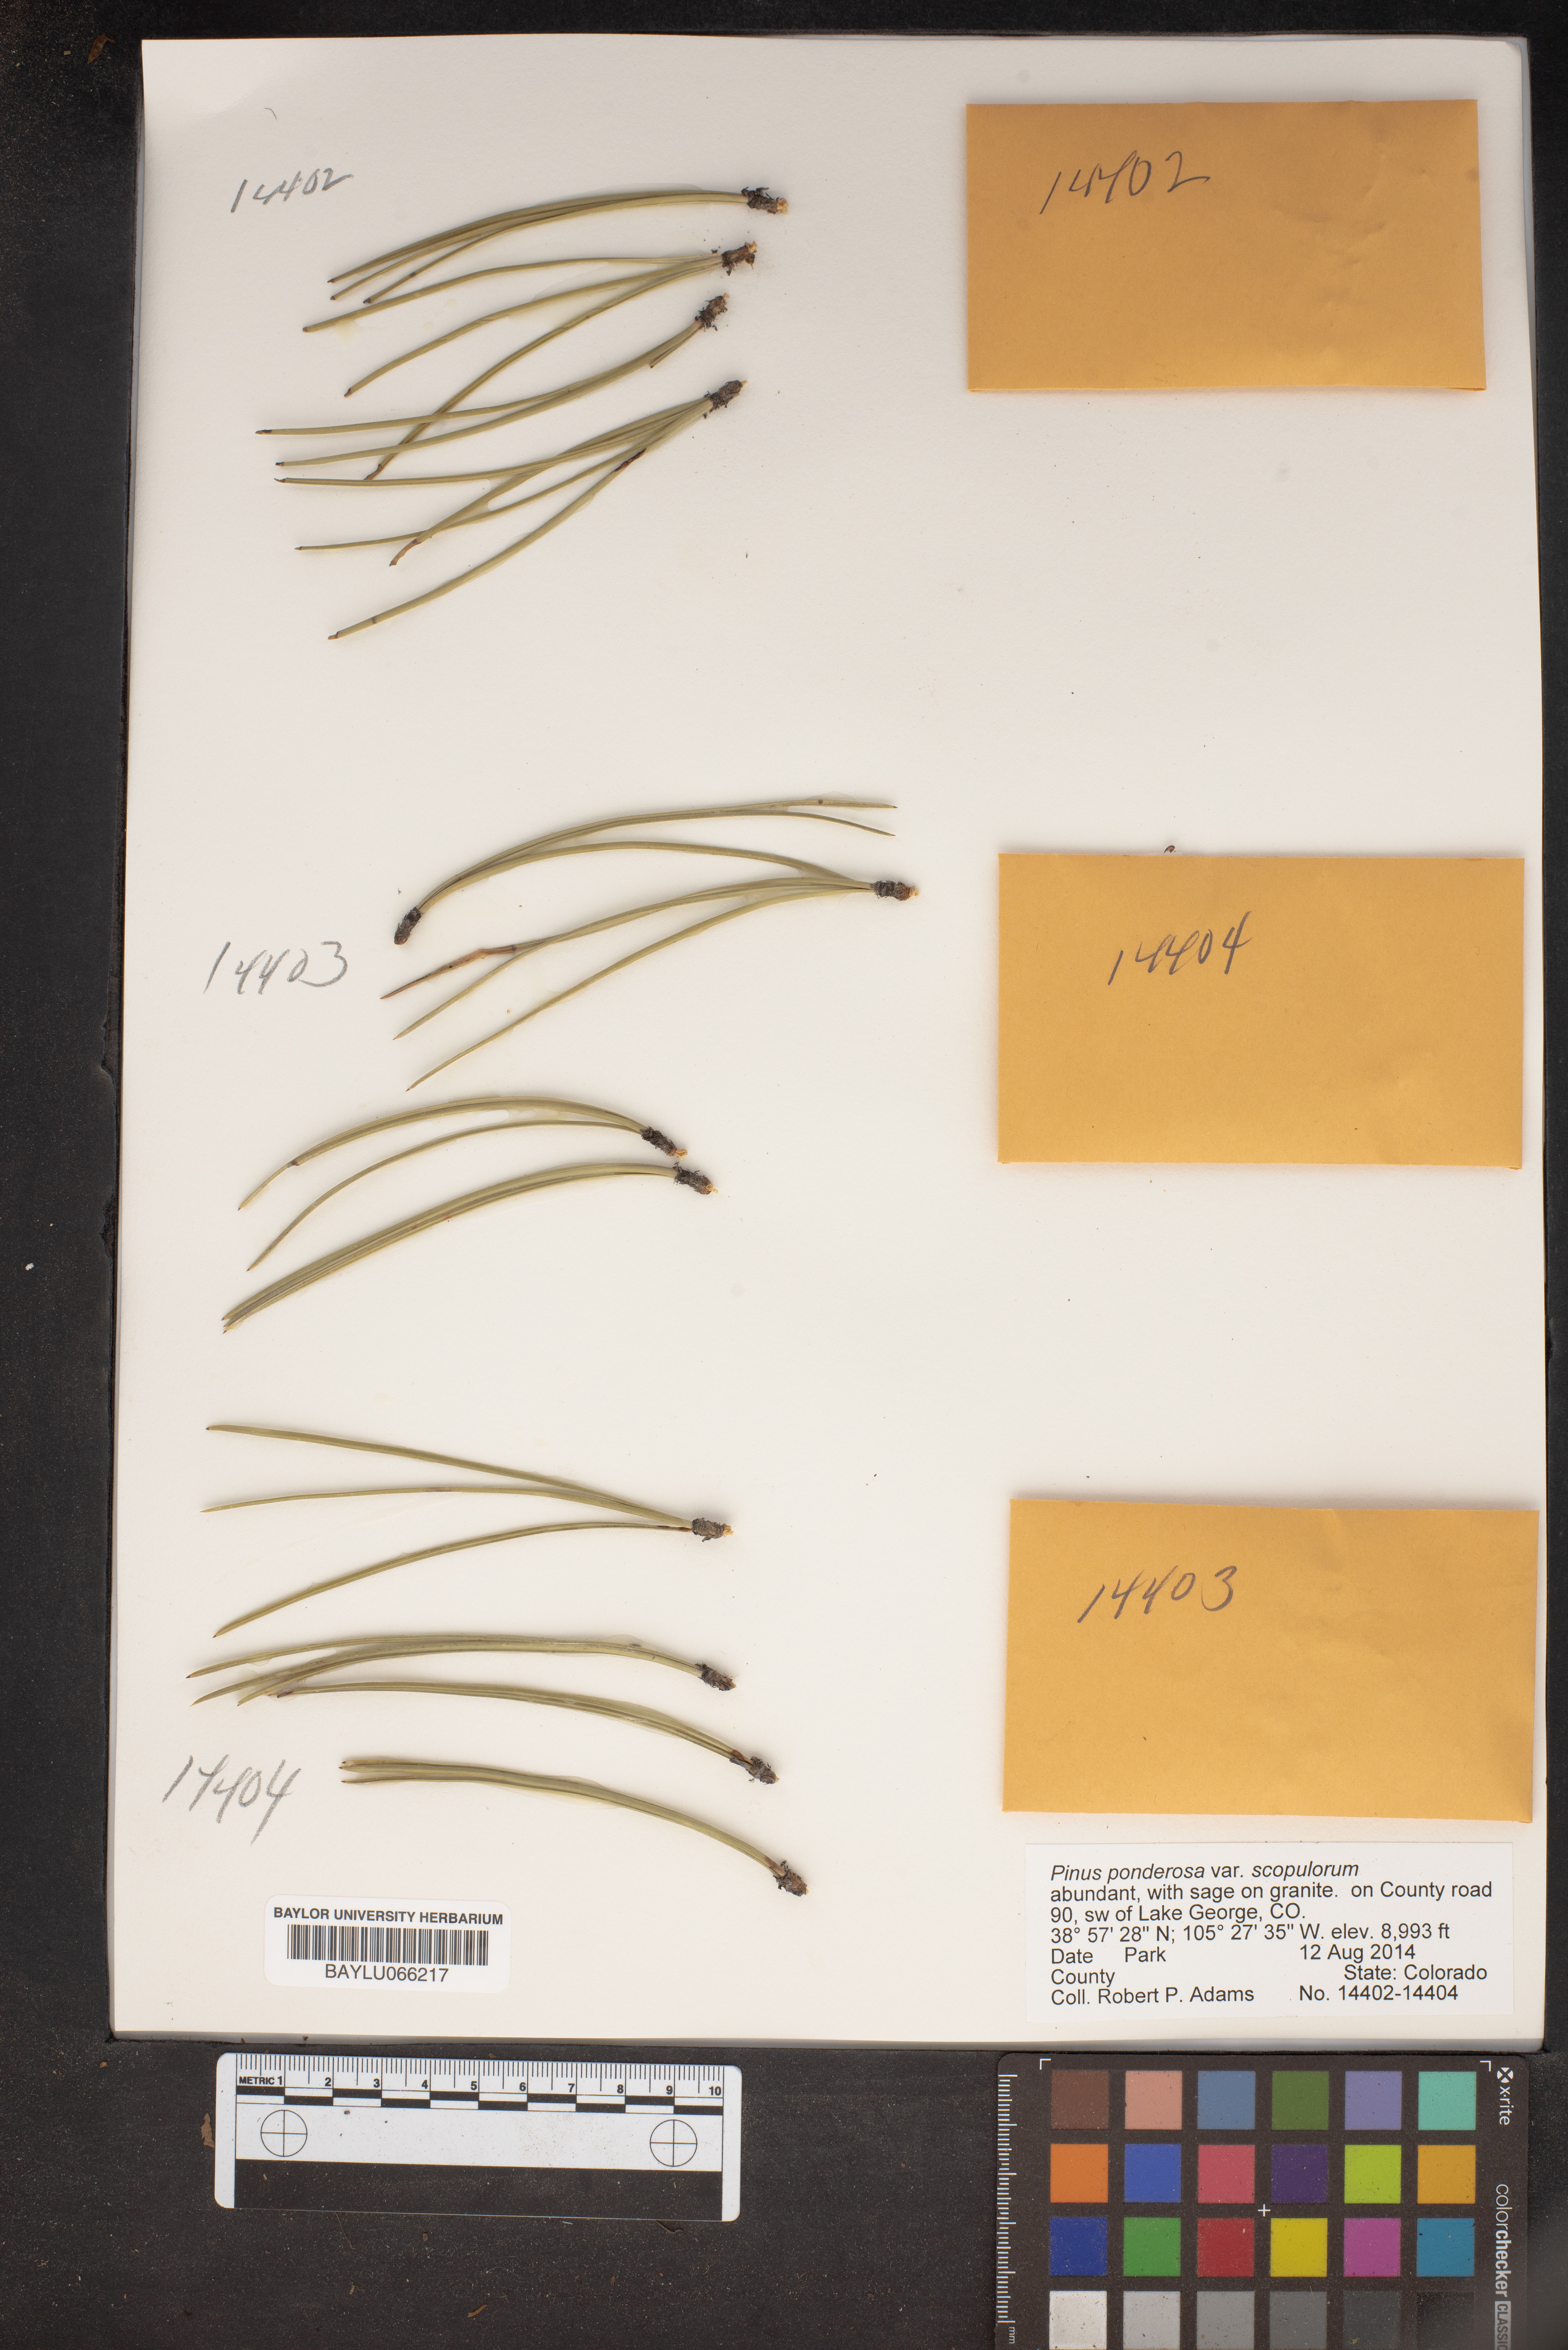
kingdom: Plantae
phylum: Tracheophyta
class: Pinopsida
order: Pinales
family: Pinaceae
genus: Pinus
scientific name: Pinus ponderosa
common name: Western yellow-pine
